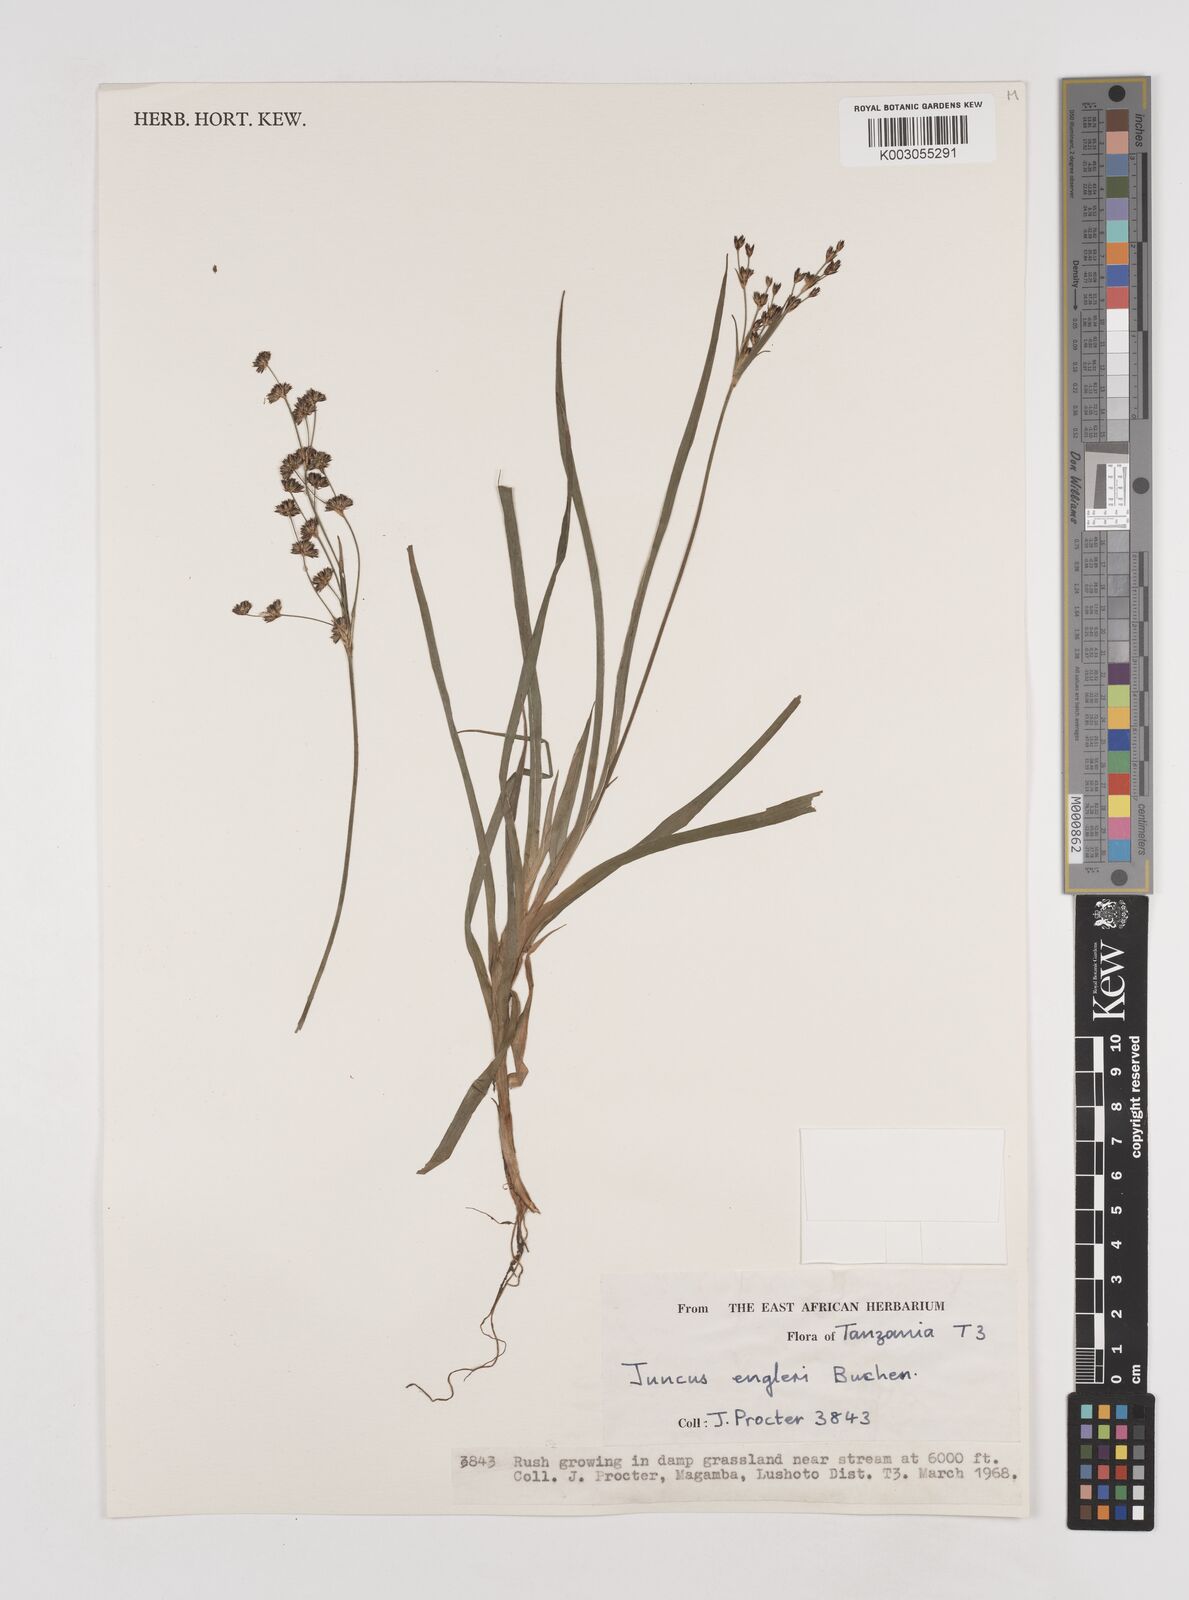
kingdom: Plantae
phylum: Tracheophyta
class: Liliopsida
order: Poales
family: Juncaceae
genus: Juncus
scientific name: Juncus engleri
